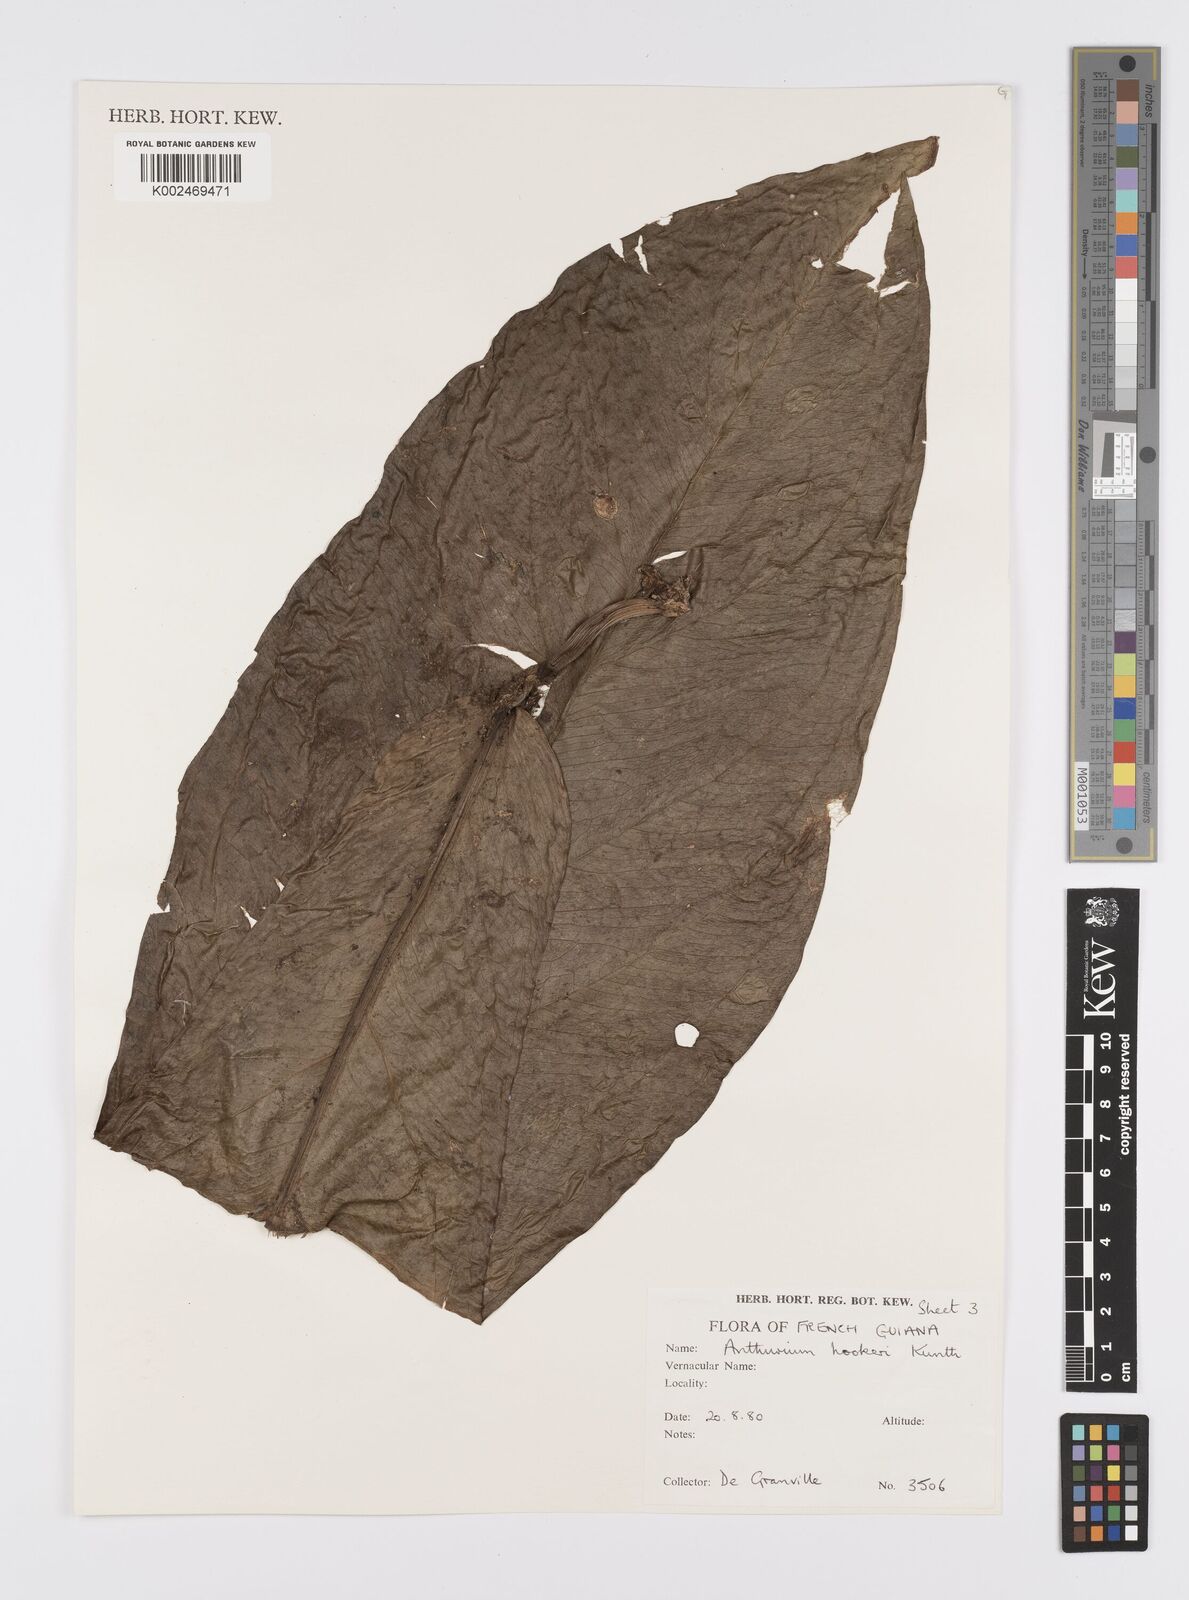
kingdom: Plantae
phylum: Tracheophyta
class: Liliopsida
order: Alismatales
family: Araceae
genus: Anthurium
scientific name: Anthurium hookeri
